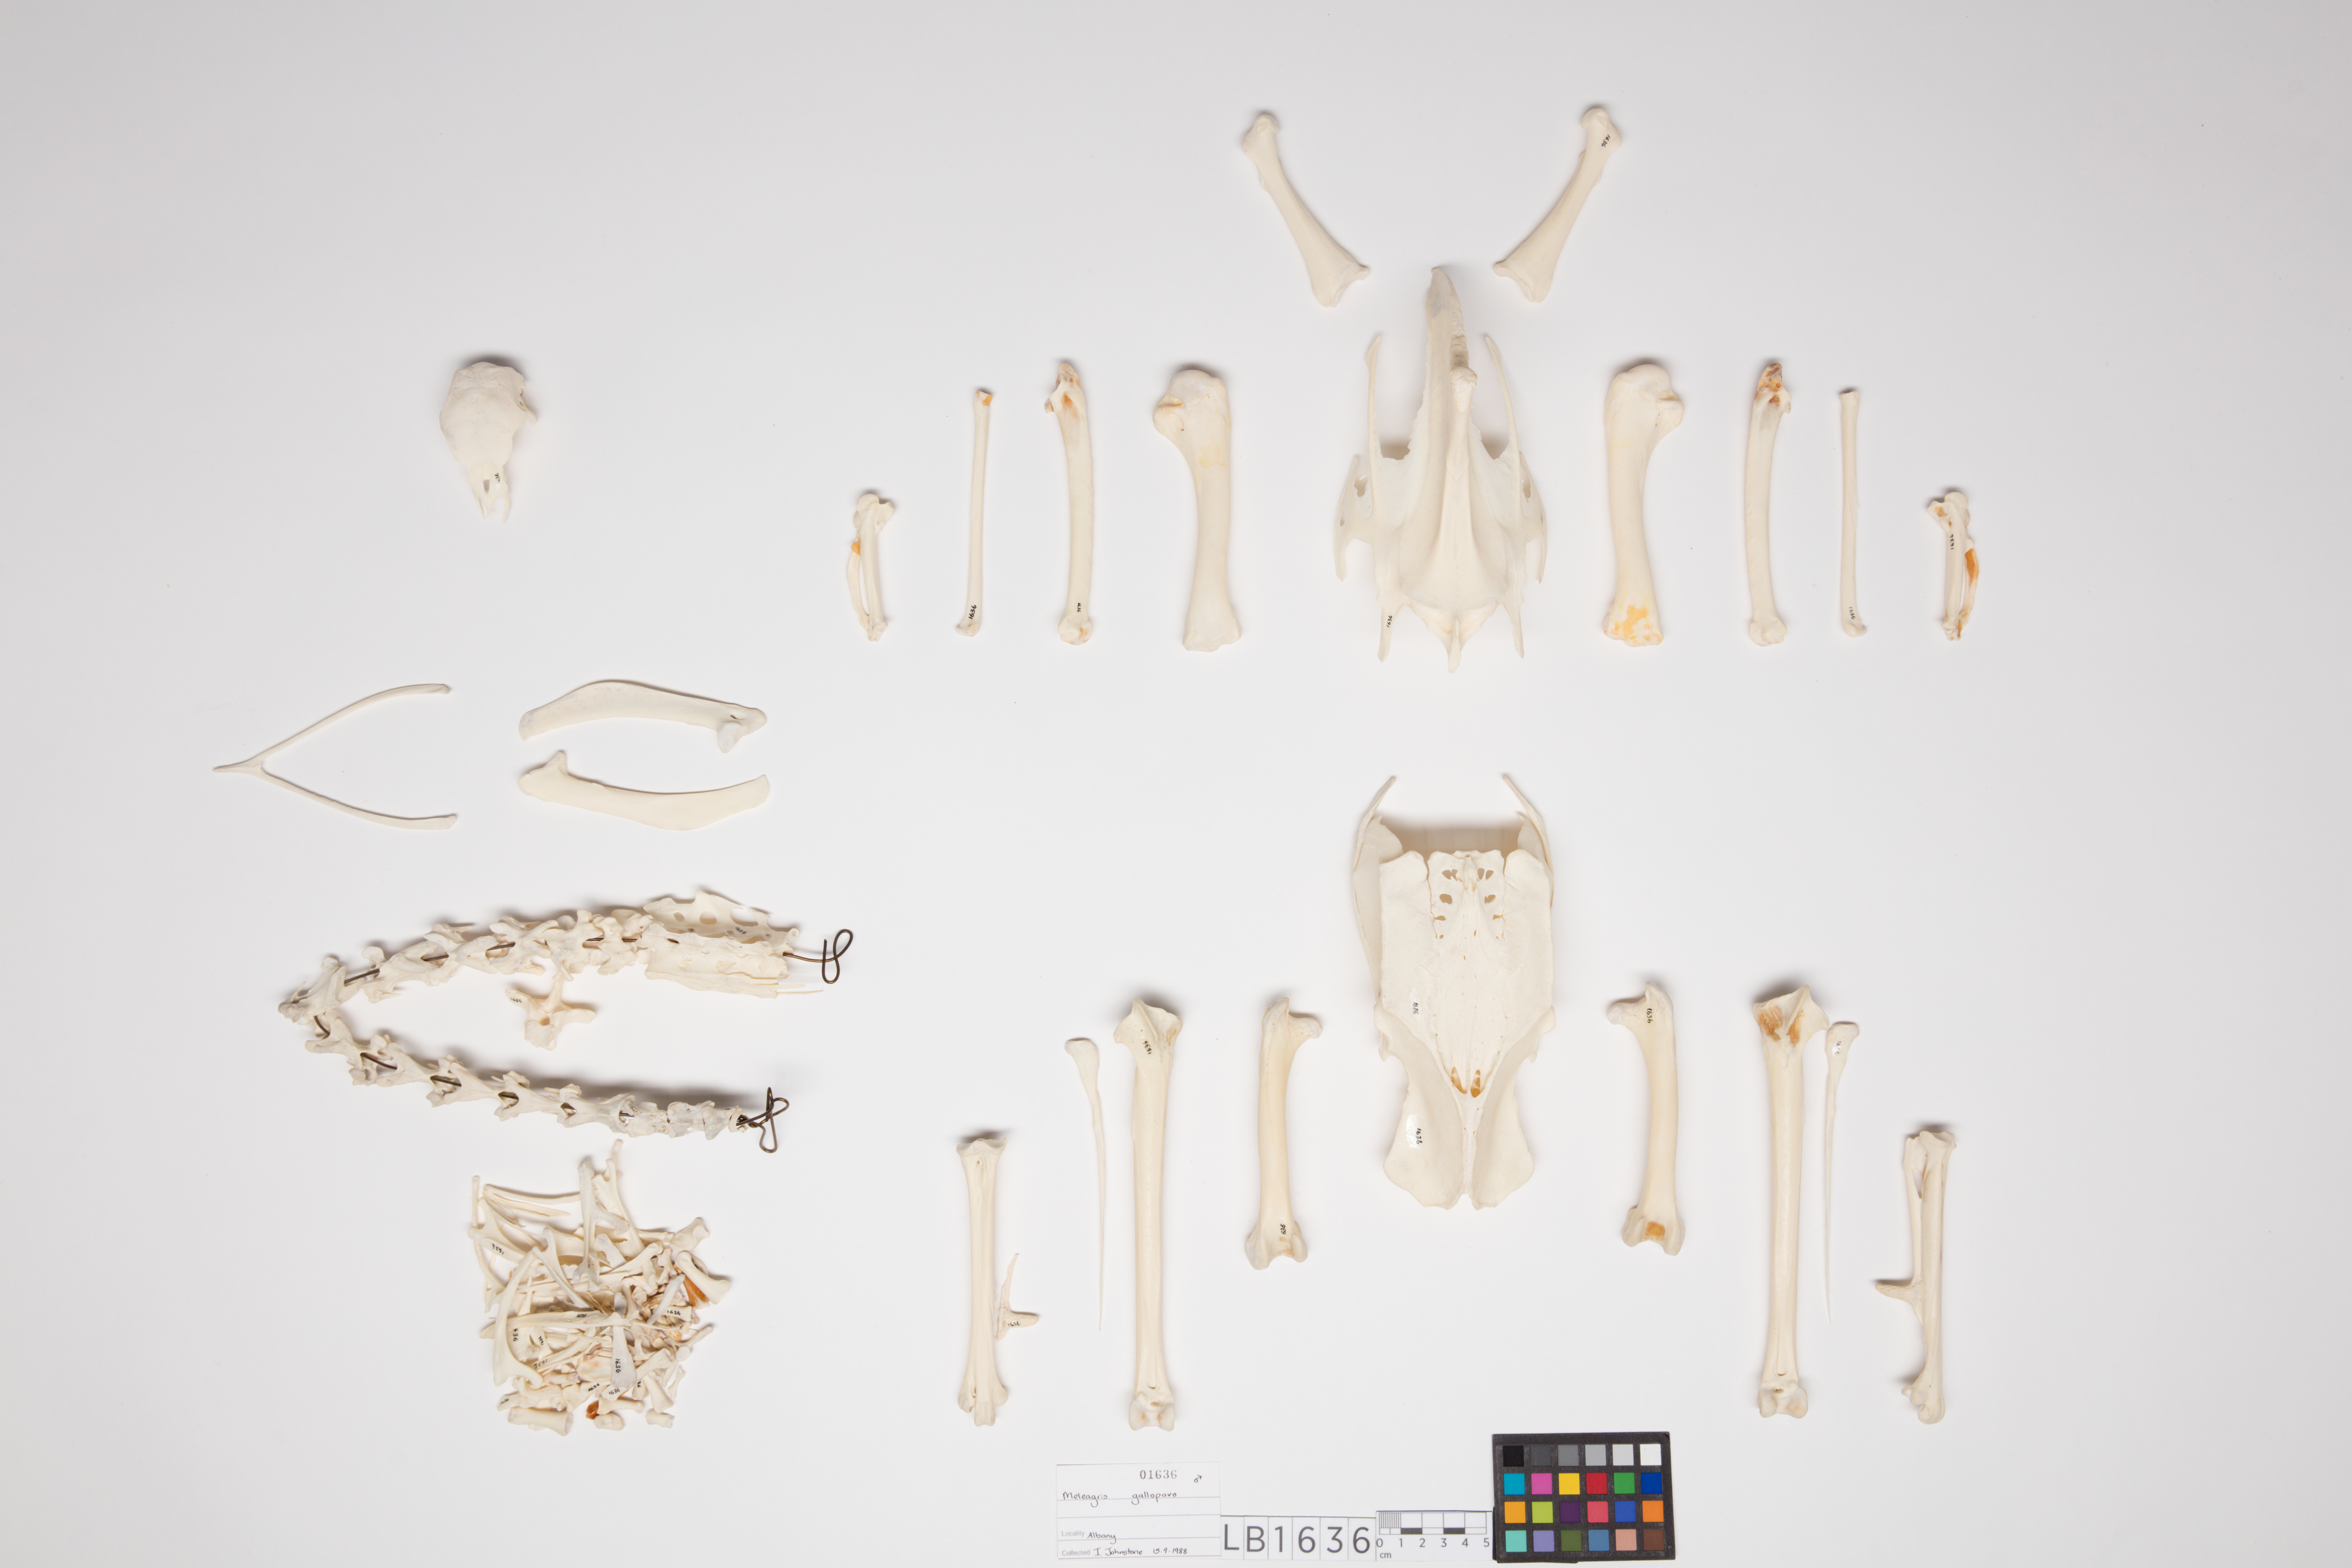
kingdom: Animalia
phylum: Chordata
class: Aves
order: Galliformes
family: Phasianidae
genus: Meleagris
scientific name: Meleagris gallopavo
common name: Wild turkey
